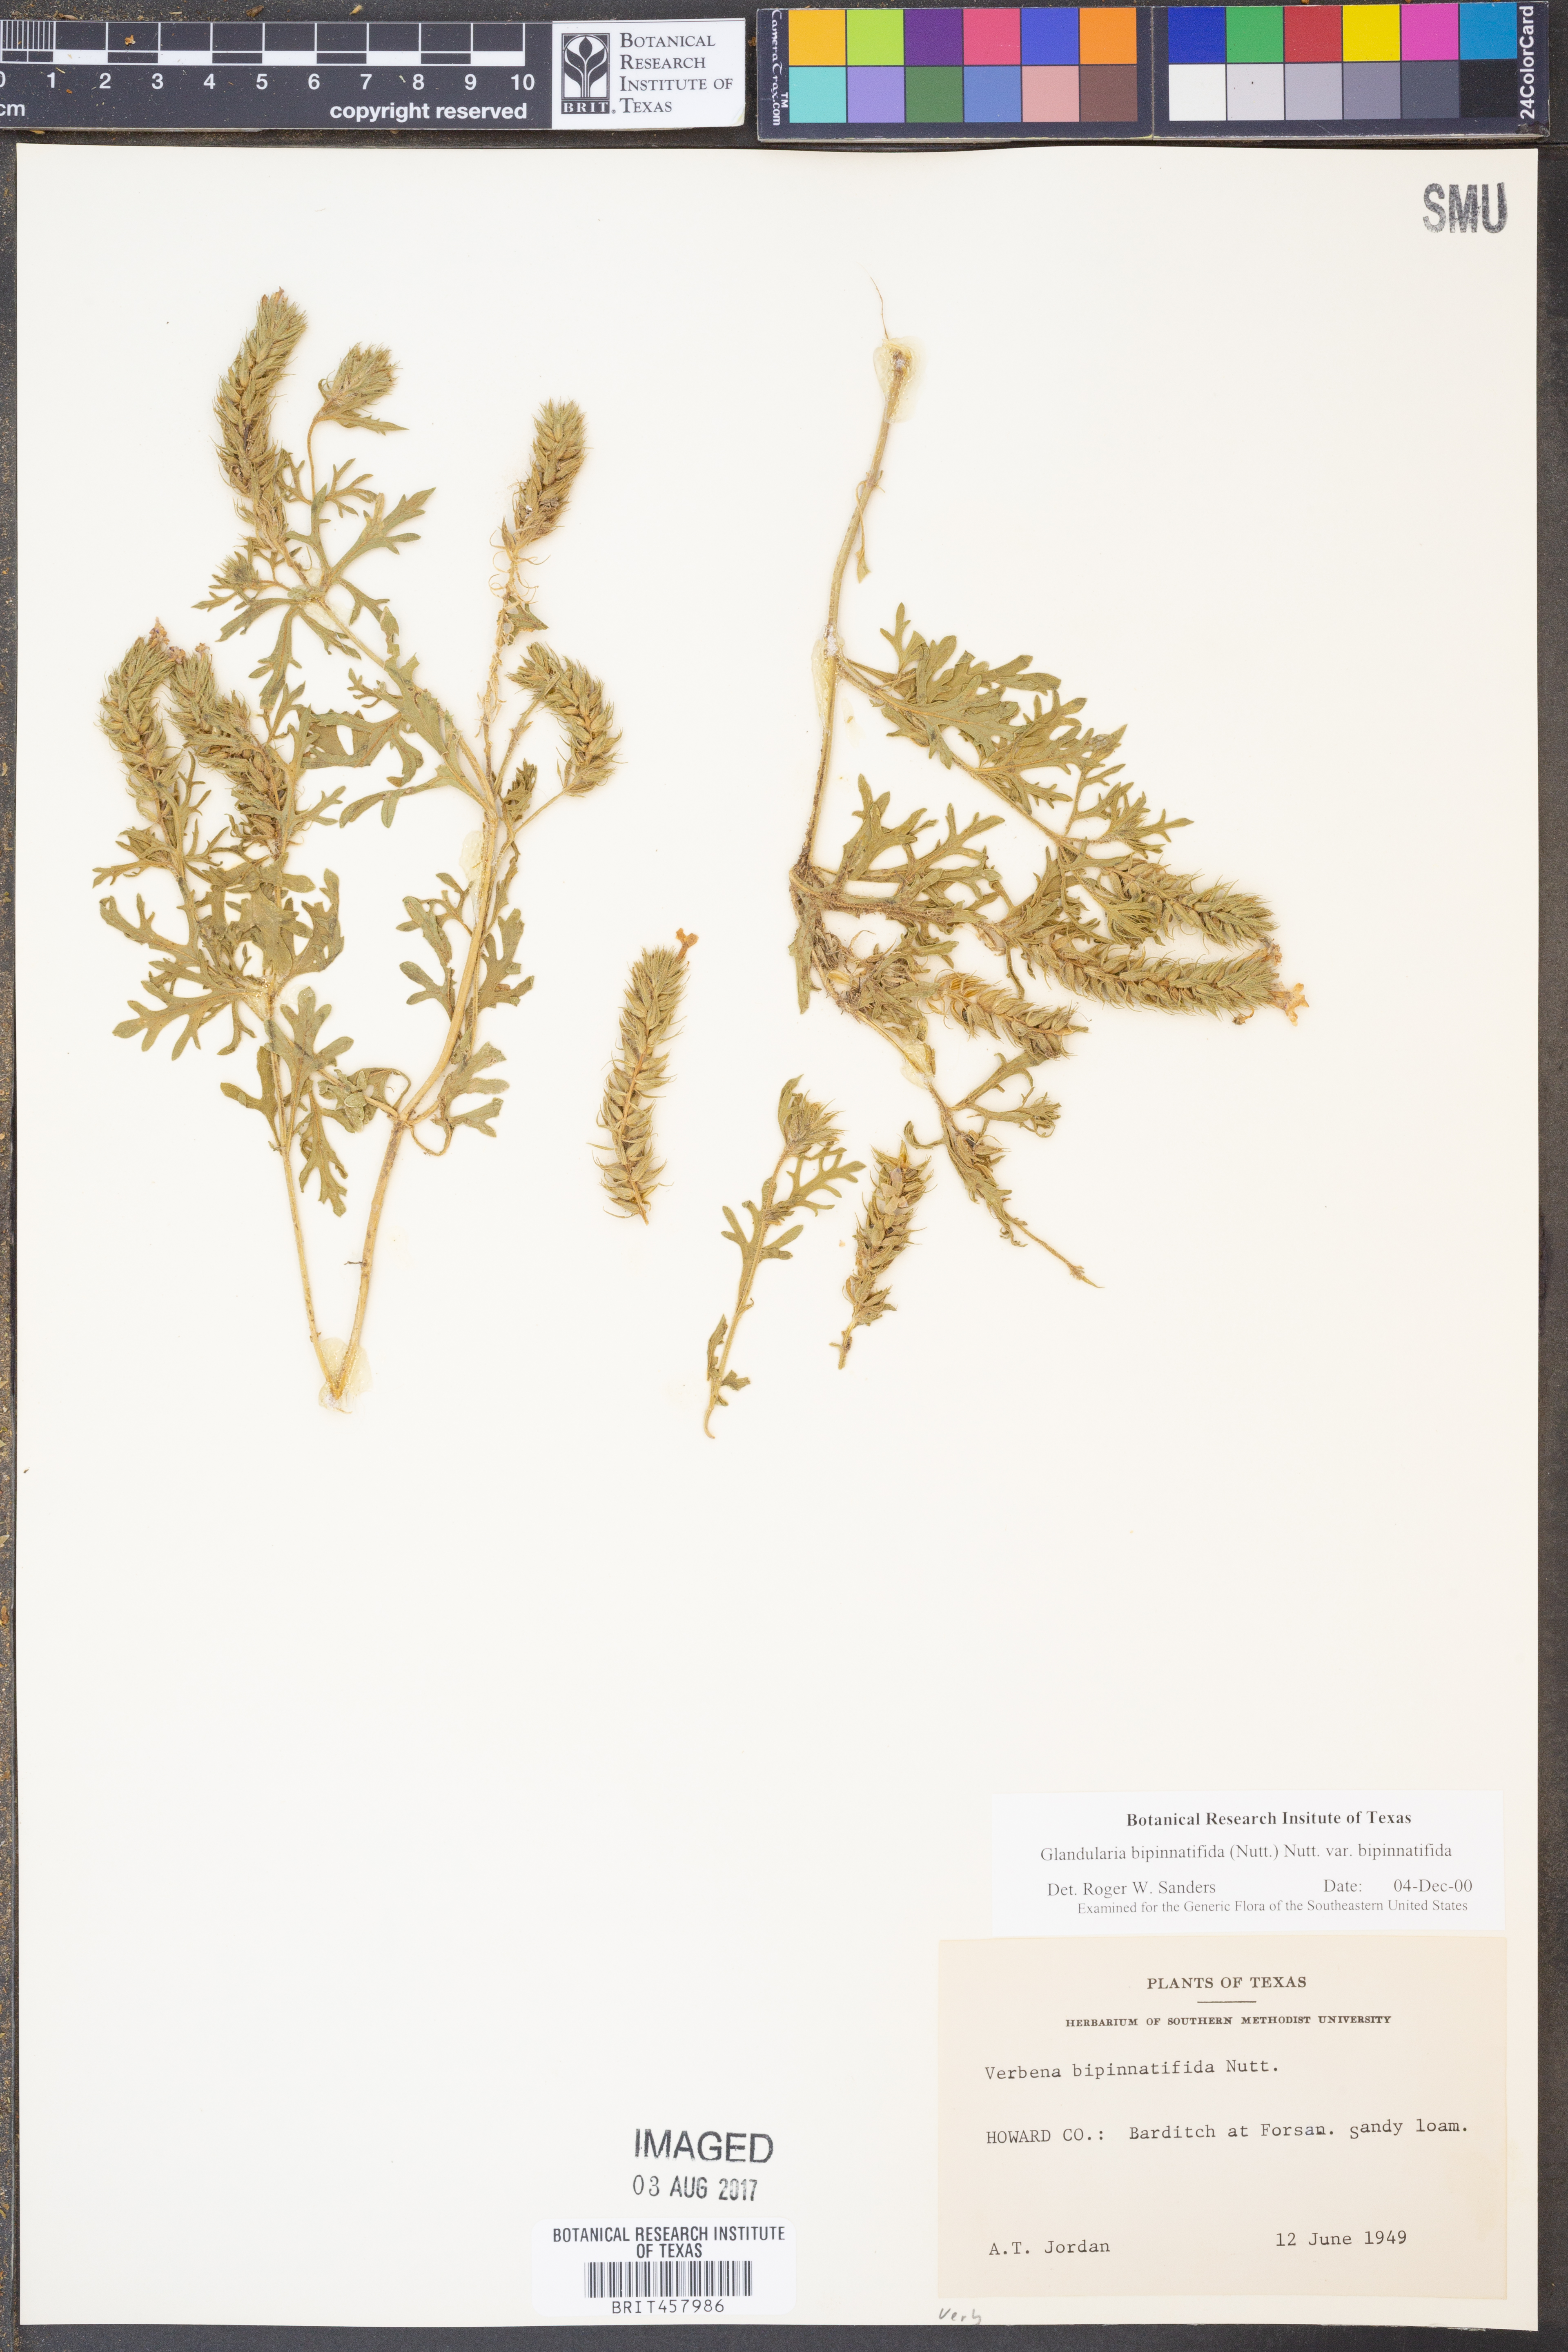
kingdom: Plantae
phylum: Tracheophyta
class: Magnoliopsida
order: Lamiales
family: Verbenaceae
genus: Verbena
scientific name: Verbena bipinnatifida
